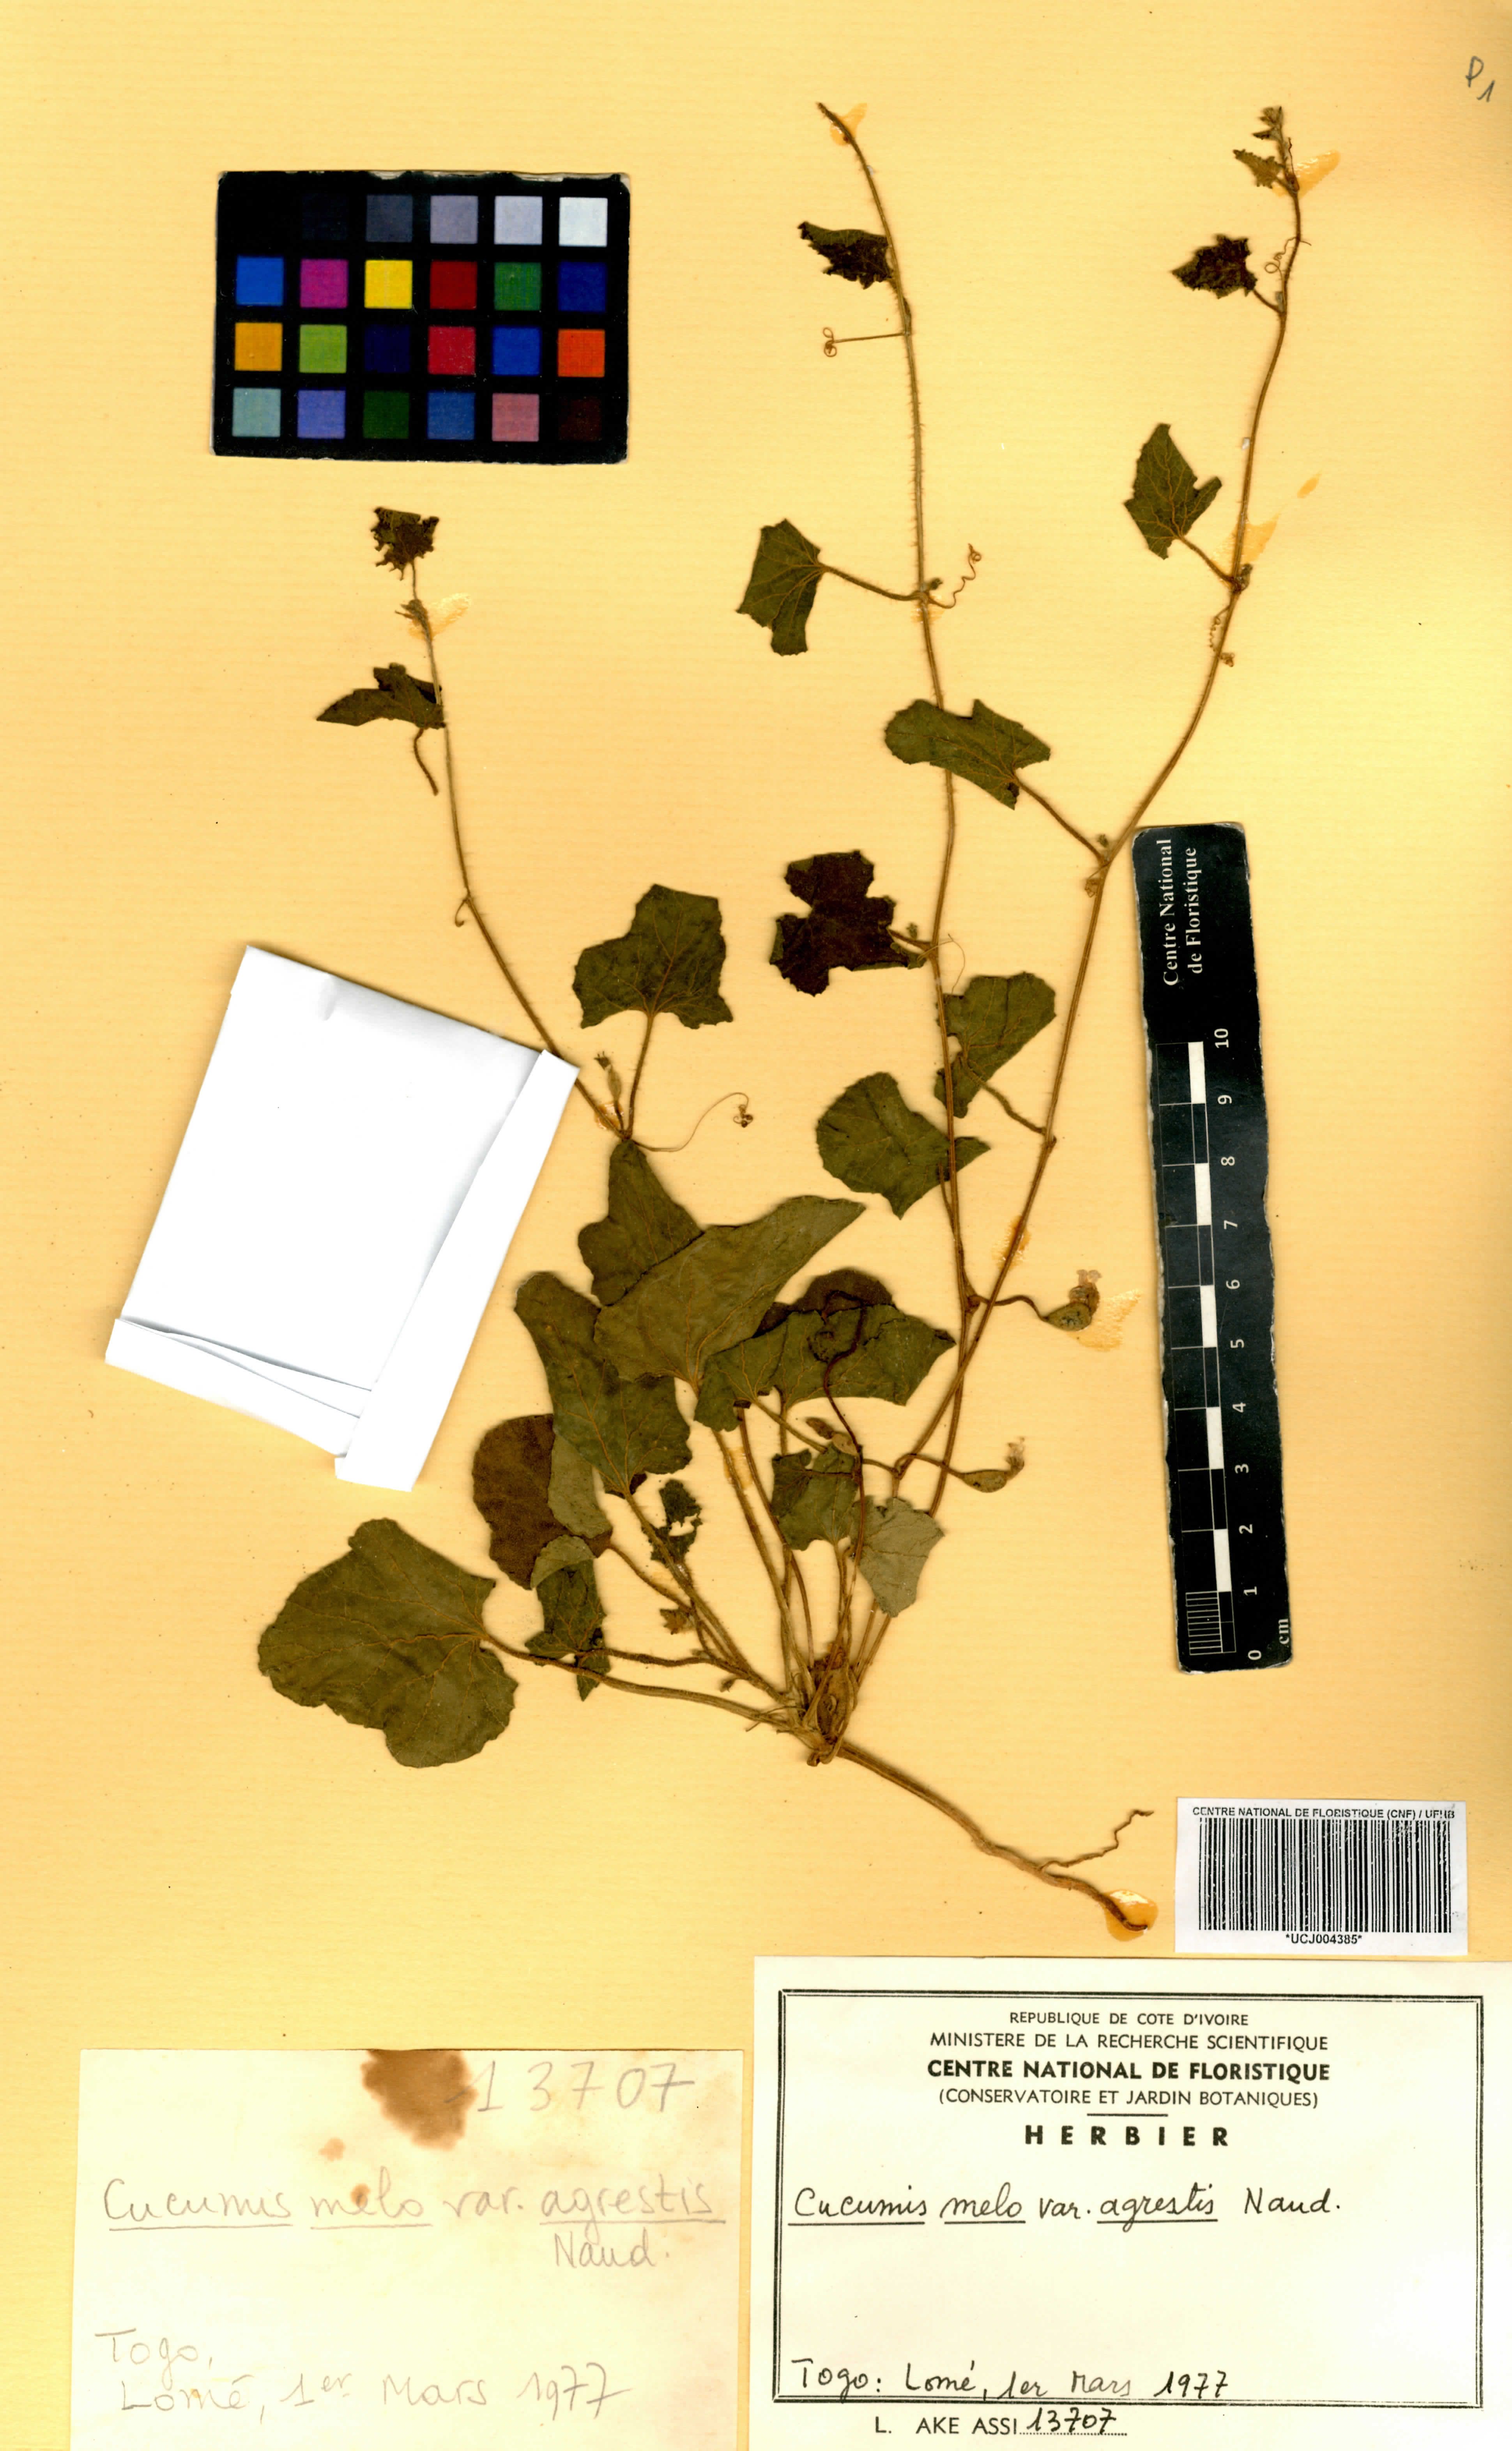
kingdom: Plantae
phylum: Tracheophyta
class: Magnoliopsida
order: Cucurbitales
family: Cucurbitaceae
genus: Cucumis
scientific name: Cucumis melo
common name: Melon
